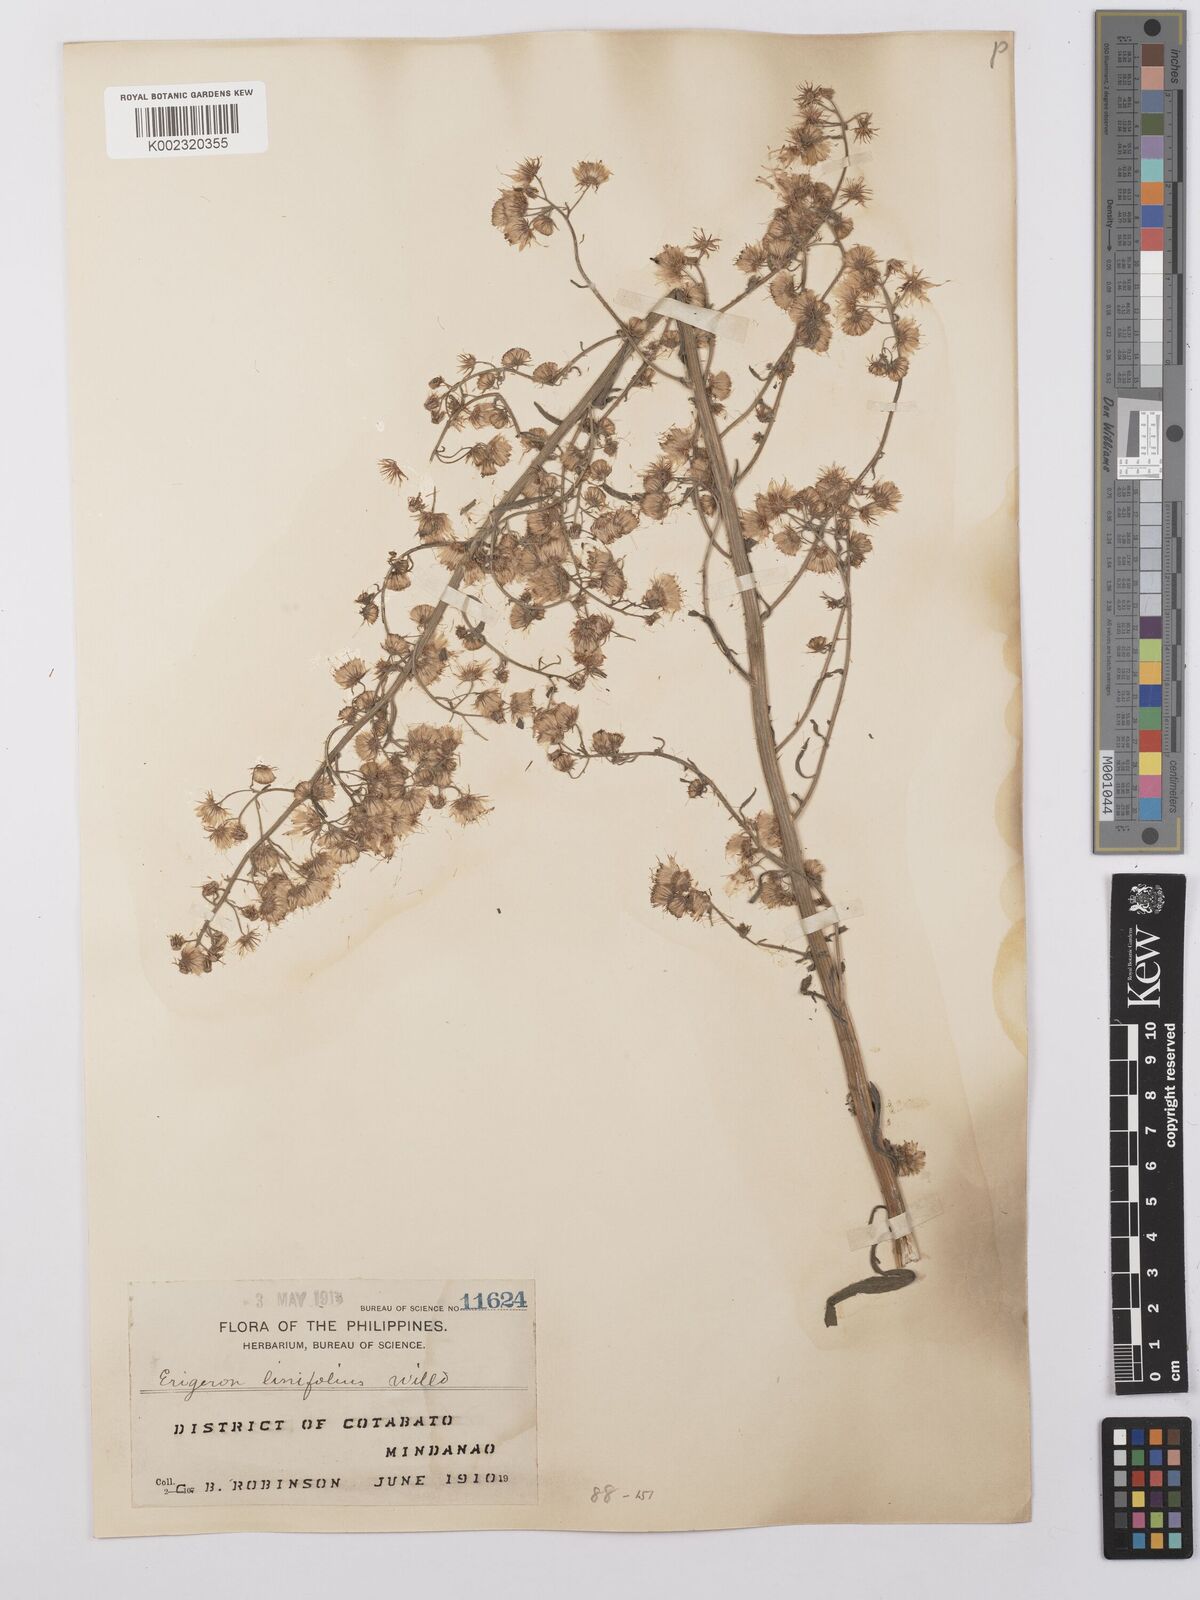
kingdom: Plantae
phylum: Tracheophyta
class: Magnoliopsida
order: Asterales
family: Asteraceae
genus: Erigeron
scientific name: Erigeron sumatrensis
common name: Daisy
